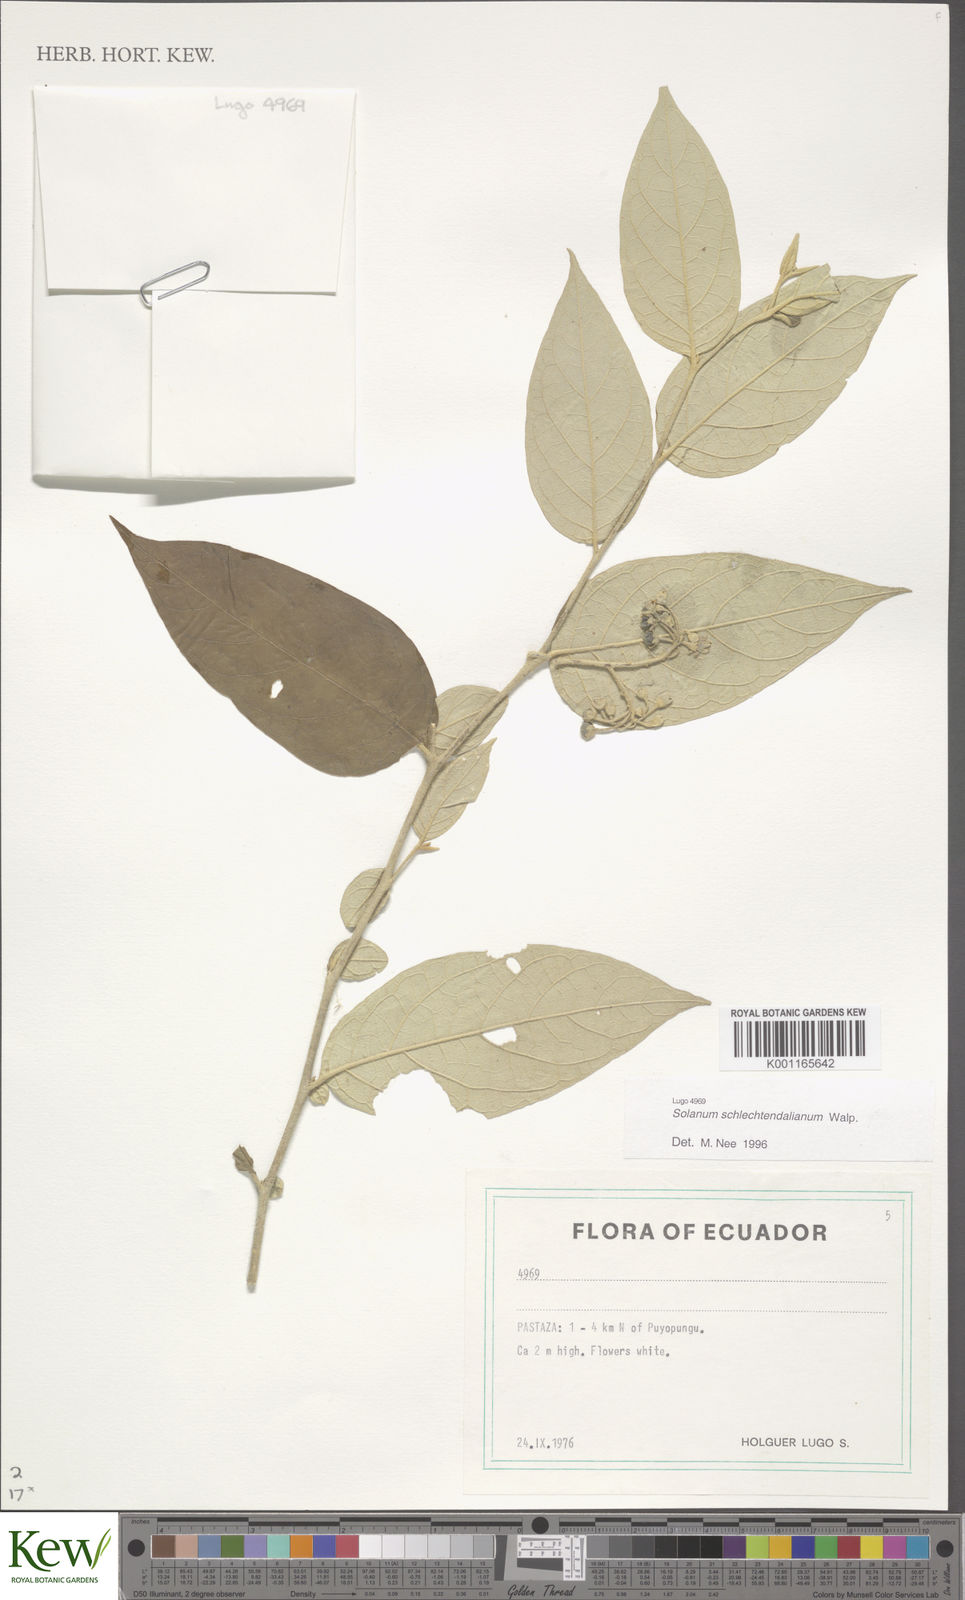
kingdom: Plantae
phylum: Tracheophyta
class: Magnoliopsida
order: Solanales
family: Solanaceae
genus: Solanum
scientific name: Solanum schlechtendalianum
